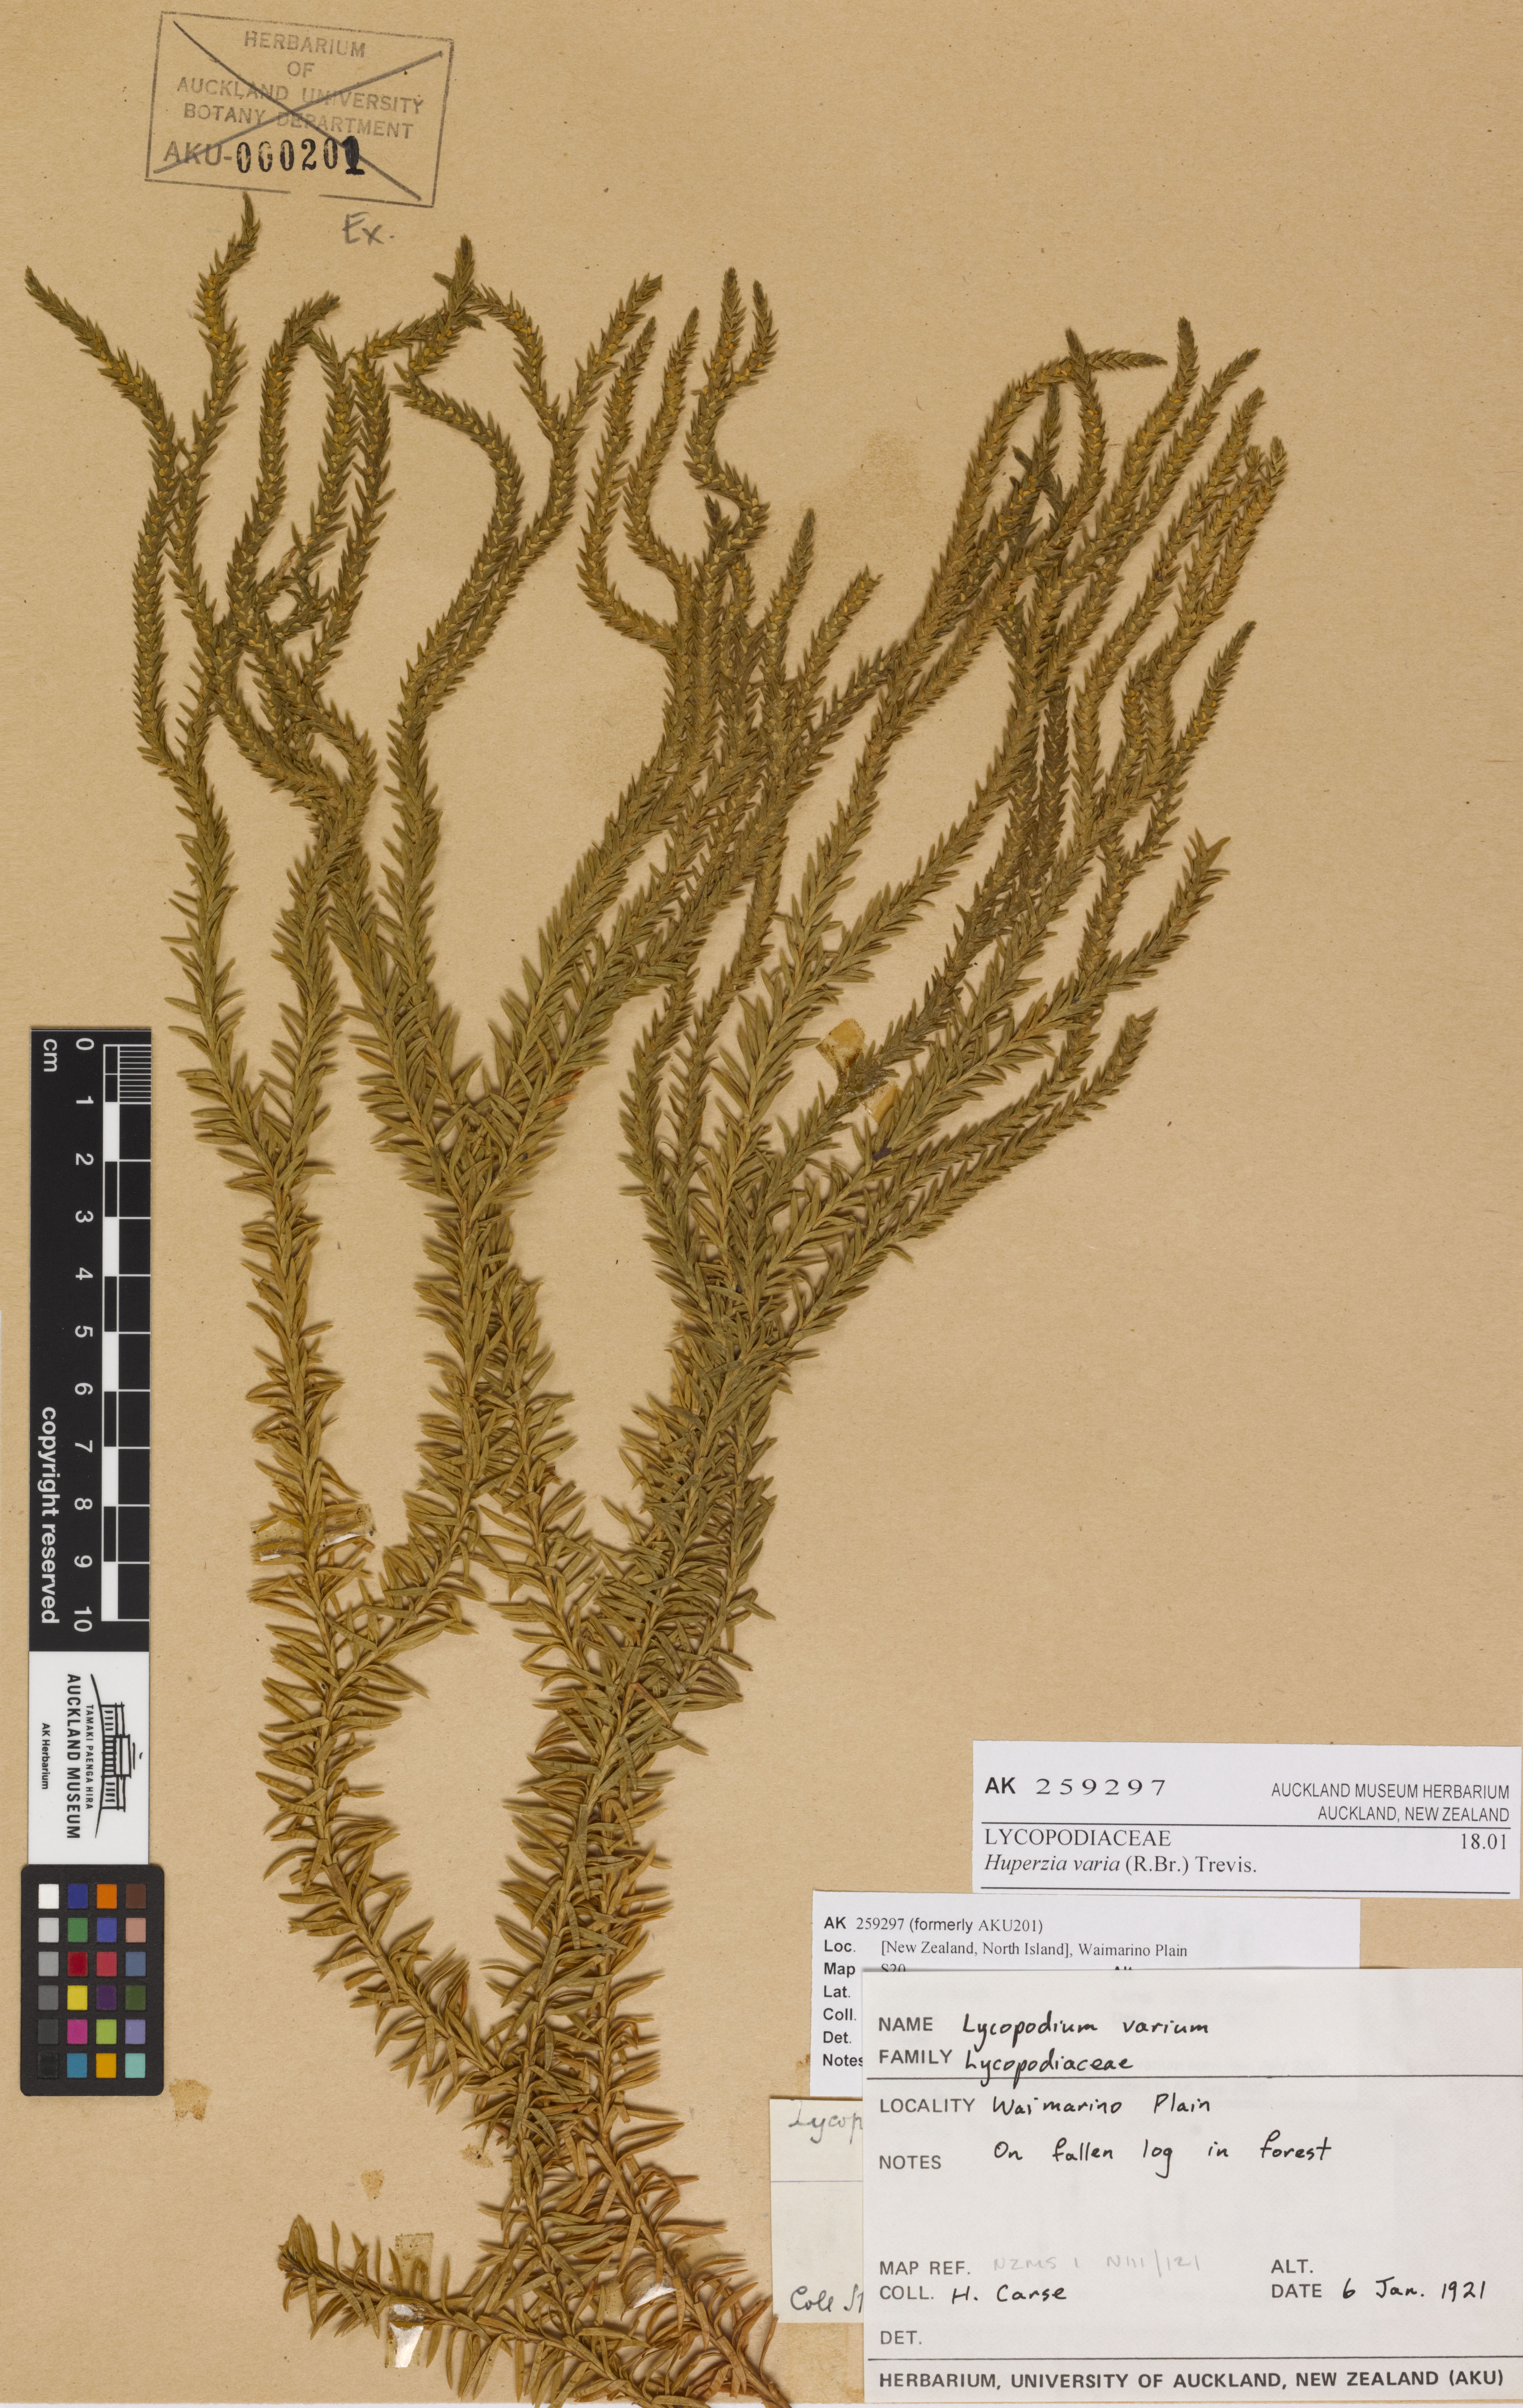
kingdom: Plantae
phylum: Tracheophyta
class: Lycopodiopsida
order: Lycopodiales
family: Lycopodiaceae
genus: Phlegmariurus
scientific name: Phlegmariurus varius
